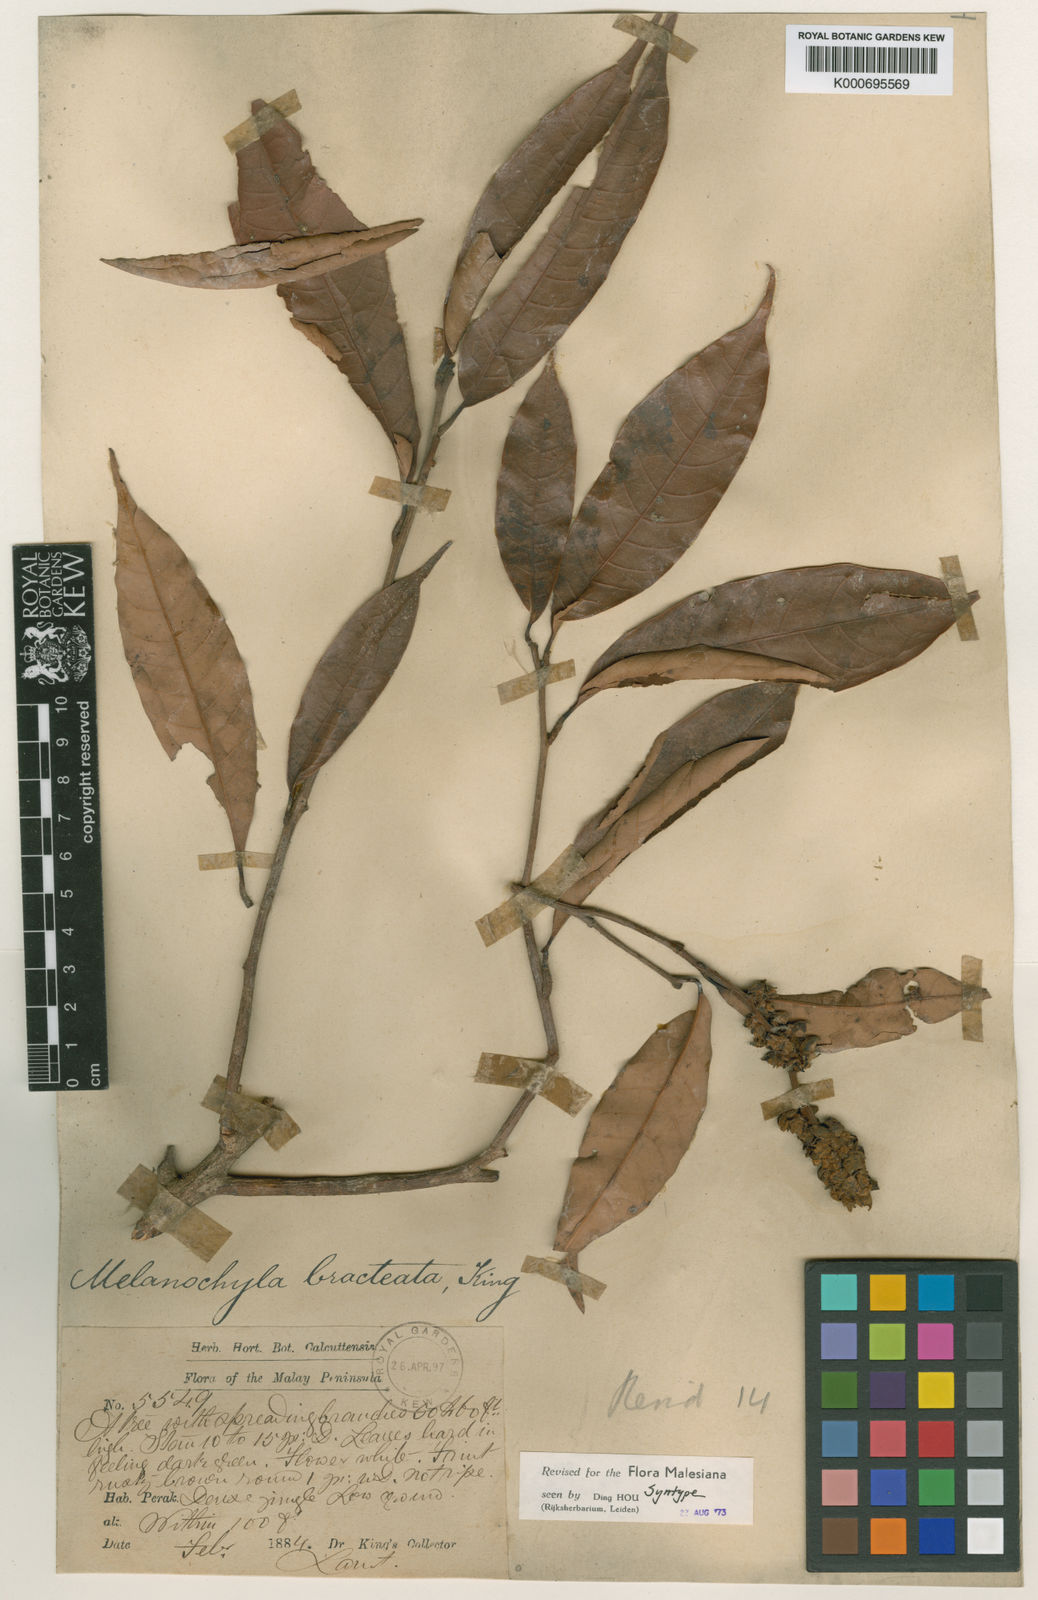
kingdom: Plantae
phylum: Tracheophyta
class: Magnoliopsida
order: Sapindales
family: Anacardiaceae
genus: Melanochyla
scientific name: Melanochyla bracteata
